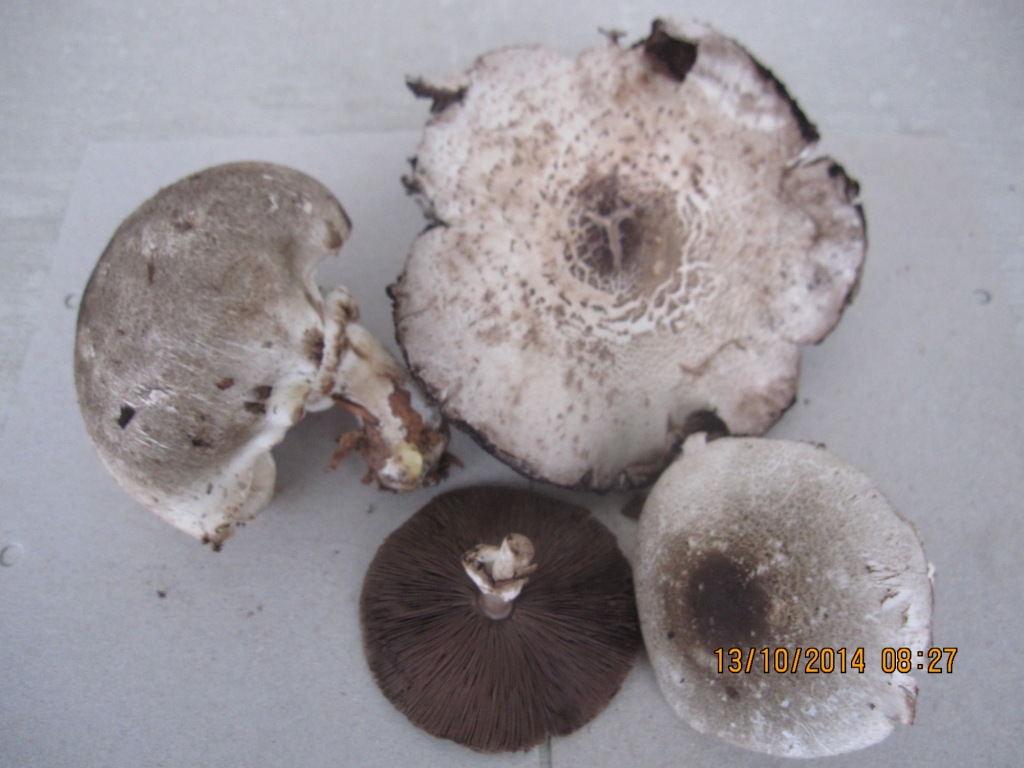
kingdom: Fungi
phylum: Basidiomycota
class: Agaricomycetes
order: Agaricales
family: Agaricaceae
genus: Agaricus
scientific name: Agaricus moelleri
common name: perlehøne-champignon
